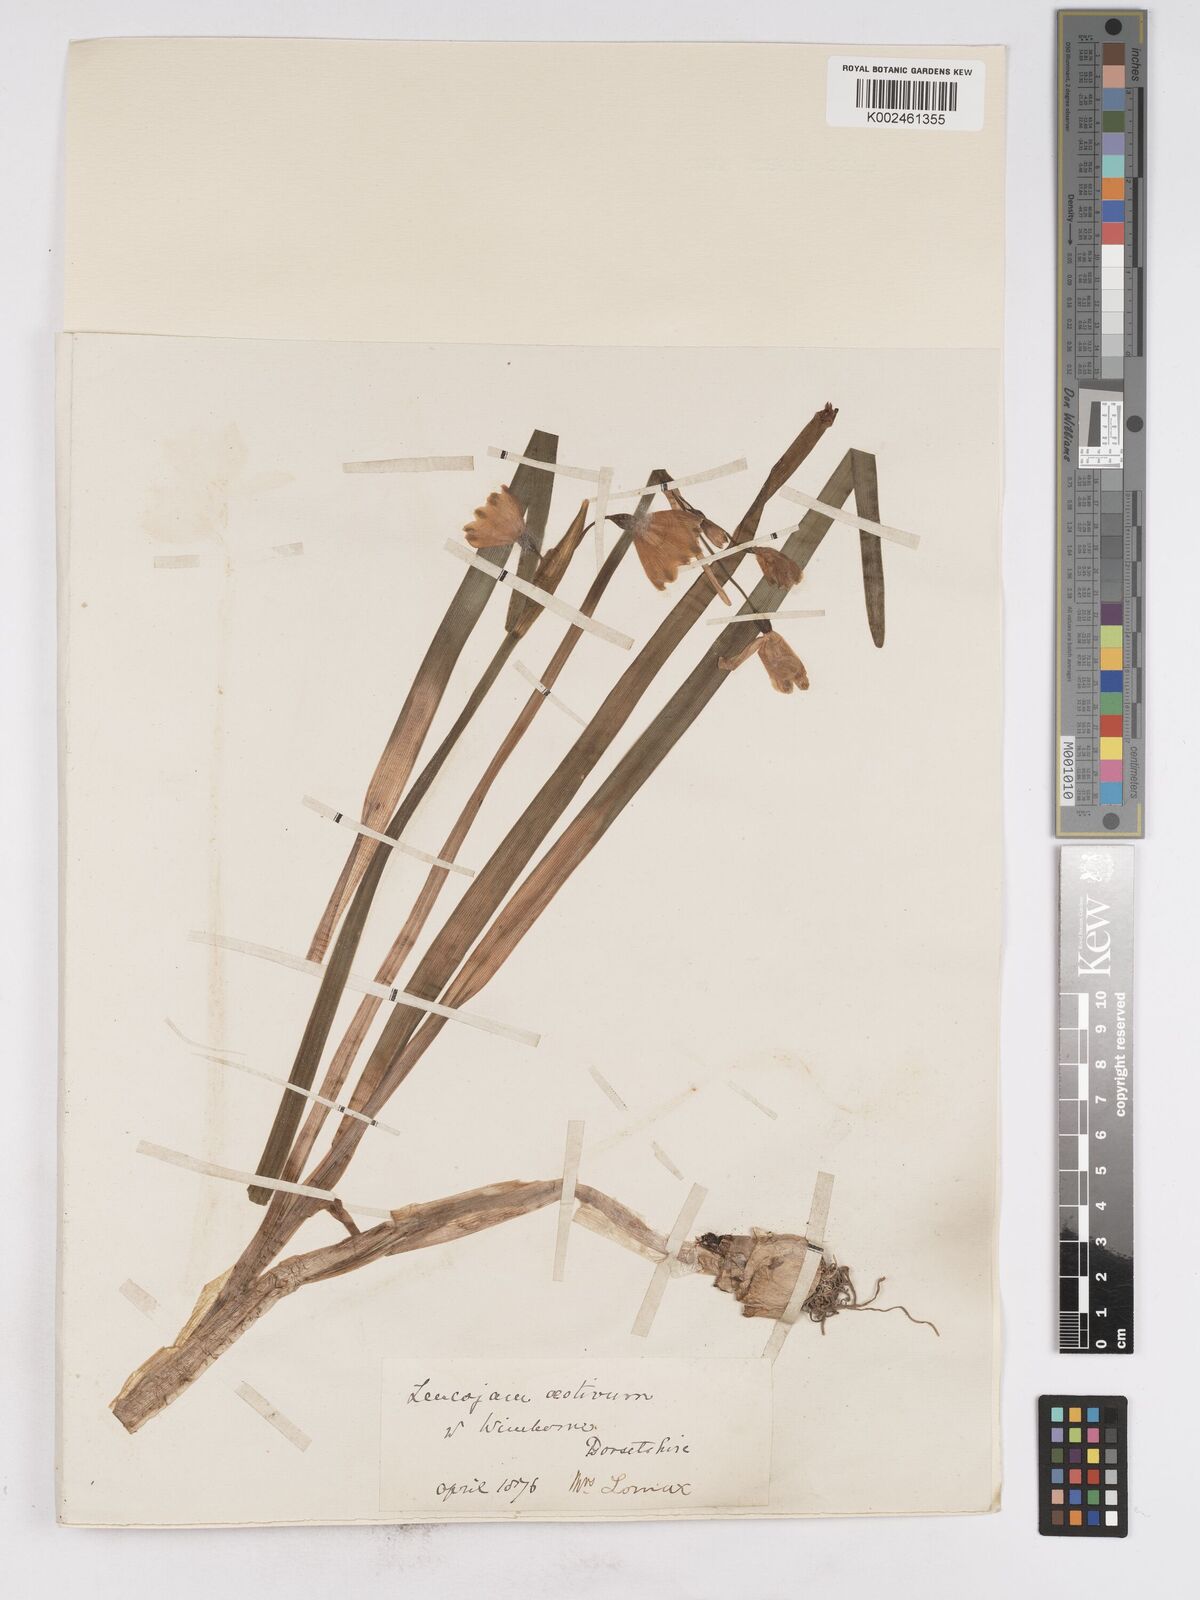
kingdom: Plantae
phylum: Tracheophyta
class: Liliopsida
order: Asparagales
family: Amaryllidaceae
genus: Leucojum
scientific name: Leucojum aestivum
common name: Summer snowflake
